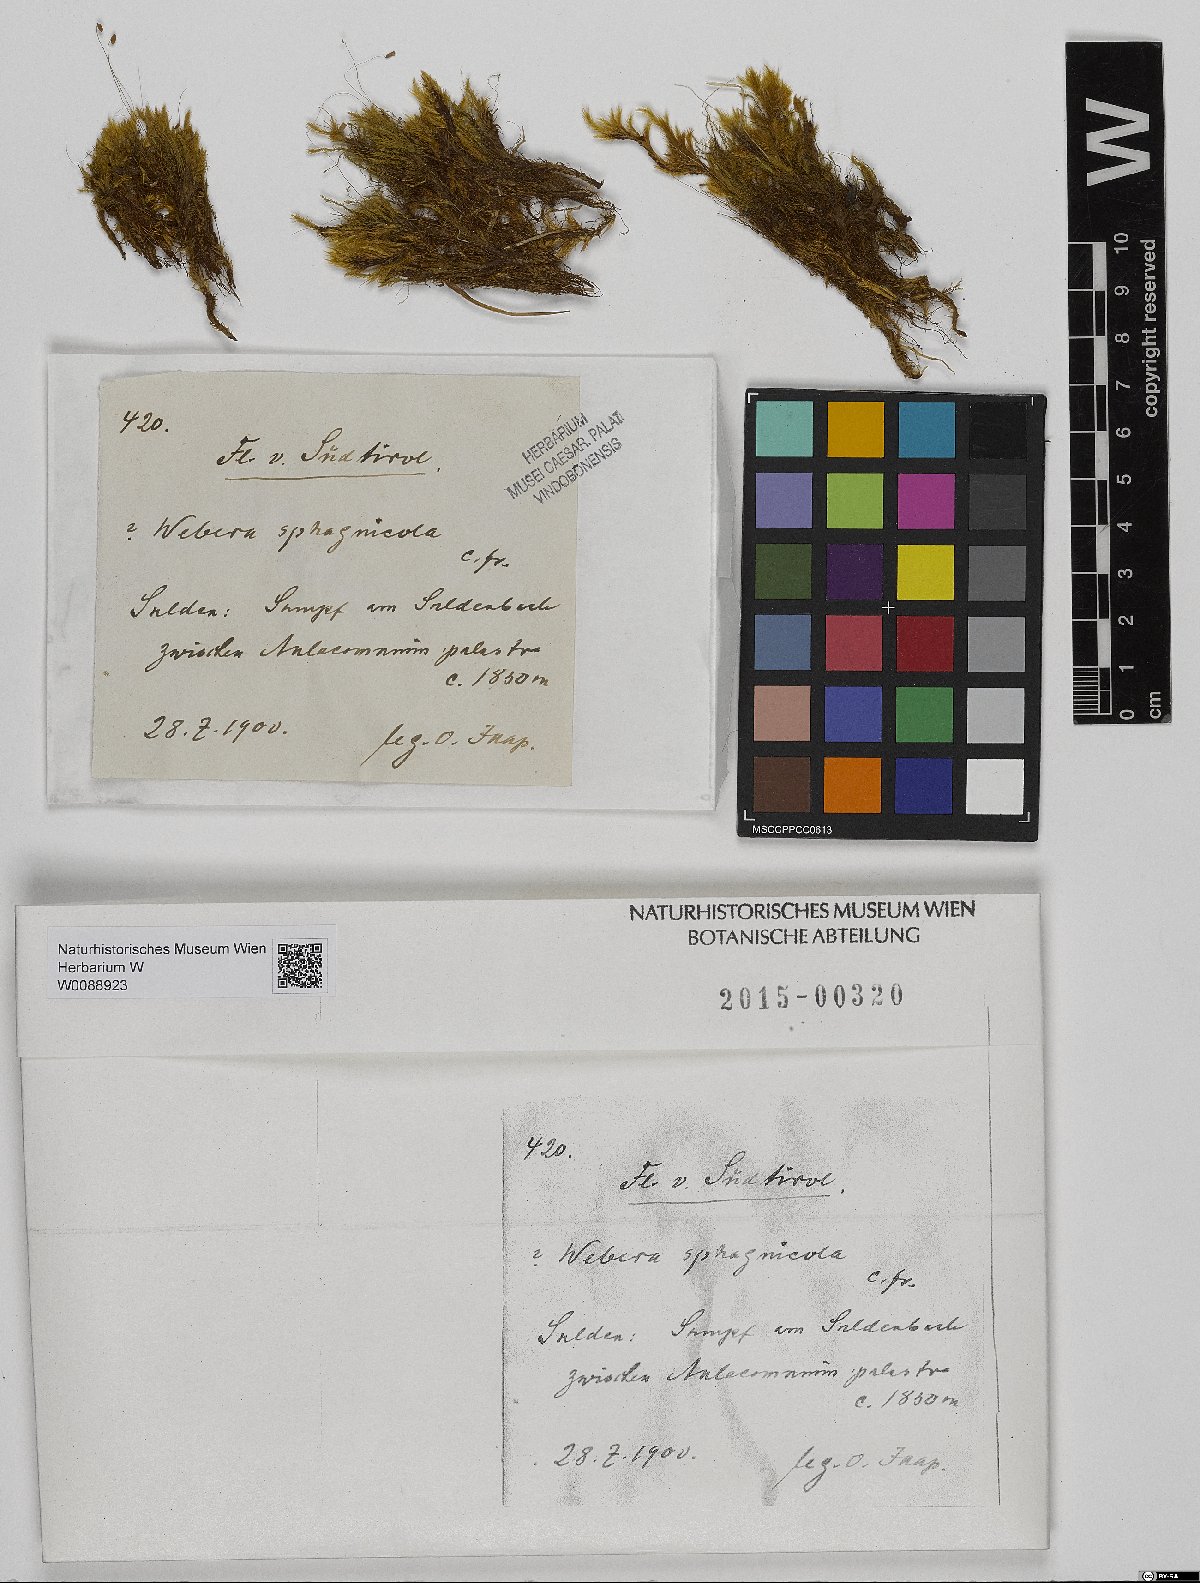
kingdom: Plantae
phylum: Bryophyta
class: Bryopsida
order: Bryales
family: Mniaceae
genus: Pohlia
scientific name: Pohlia sphagnicola
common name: Bog nodding moss
